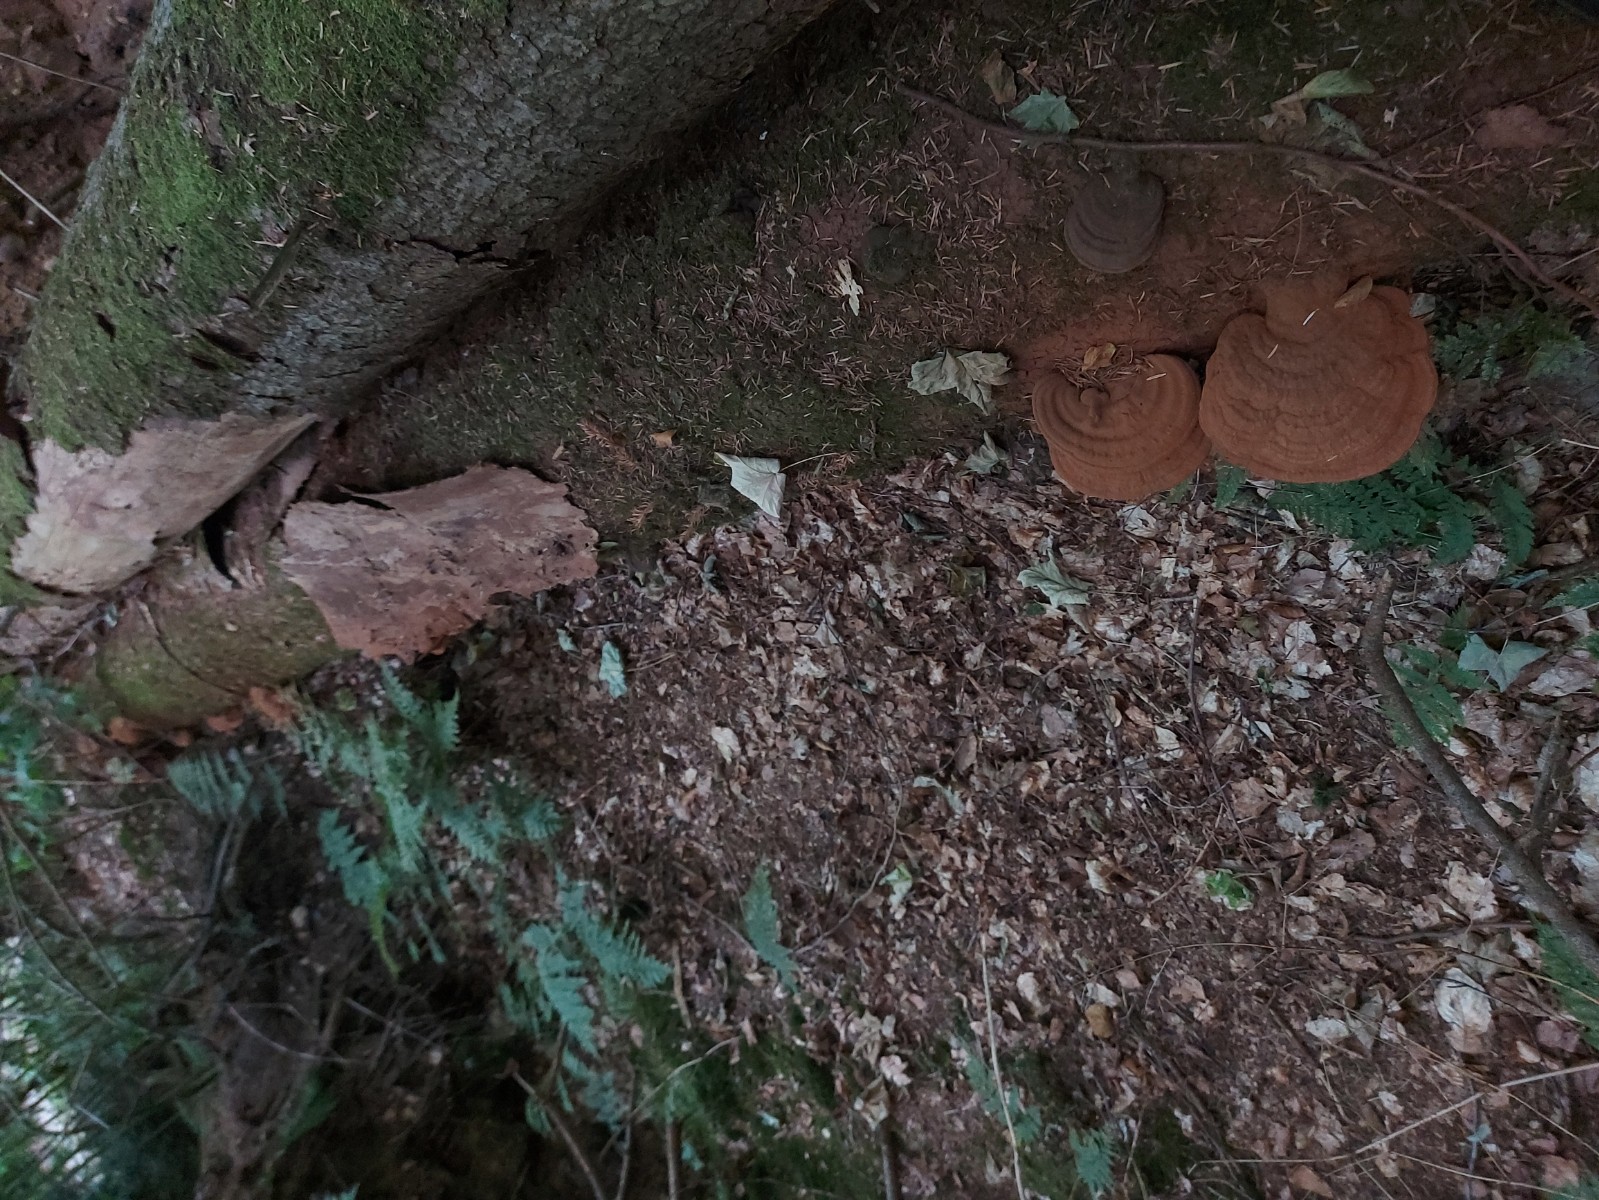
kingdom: Fungi
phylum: Basidiomycota
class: Agaricomycetes
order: Polyporales
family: Polyporaceae
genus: Ganoderma
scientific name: Ganoderma applanatum
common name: flad lakporesvamp
